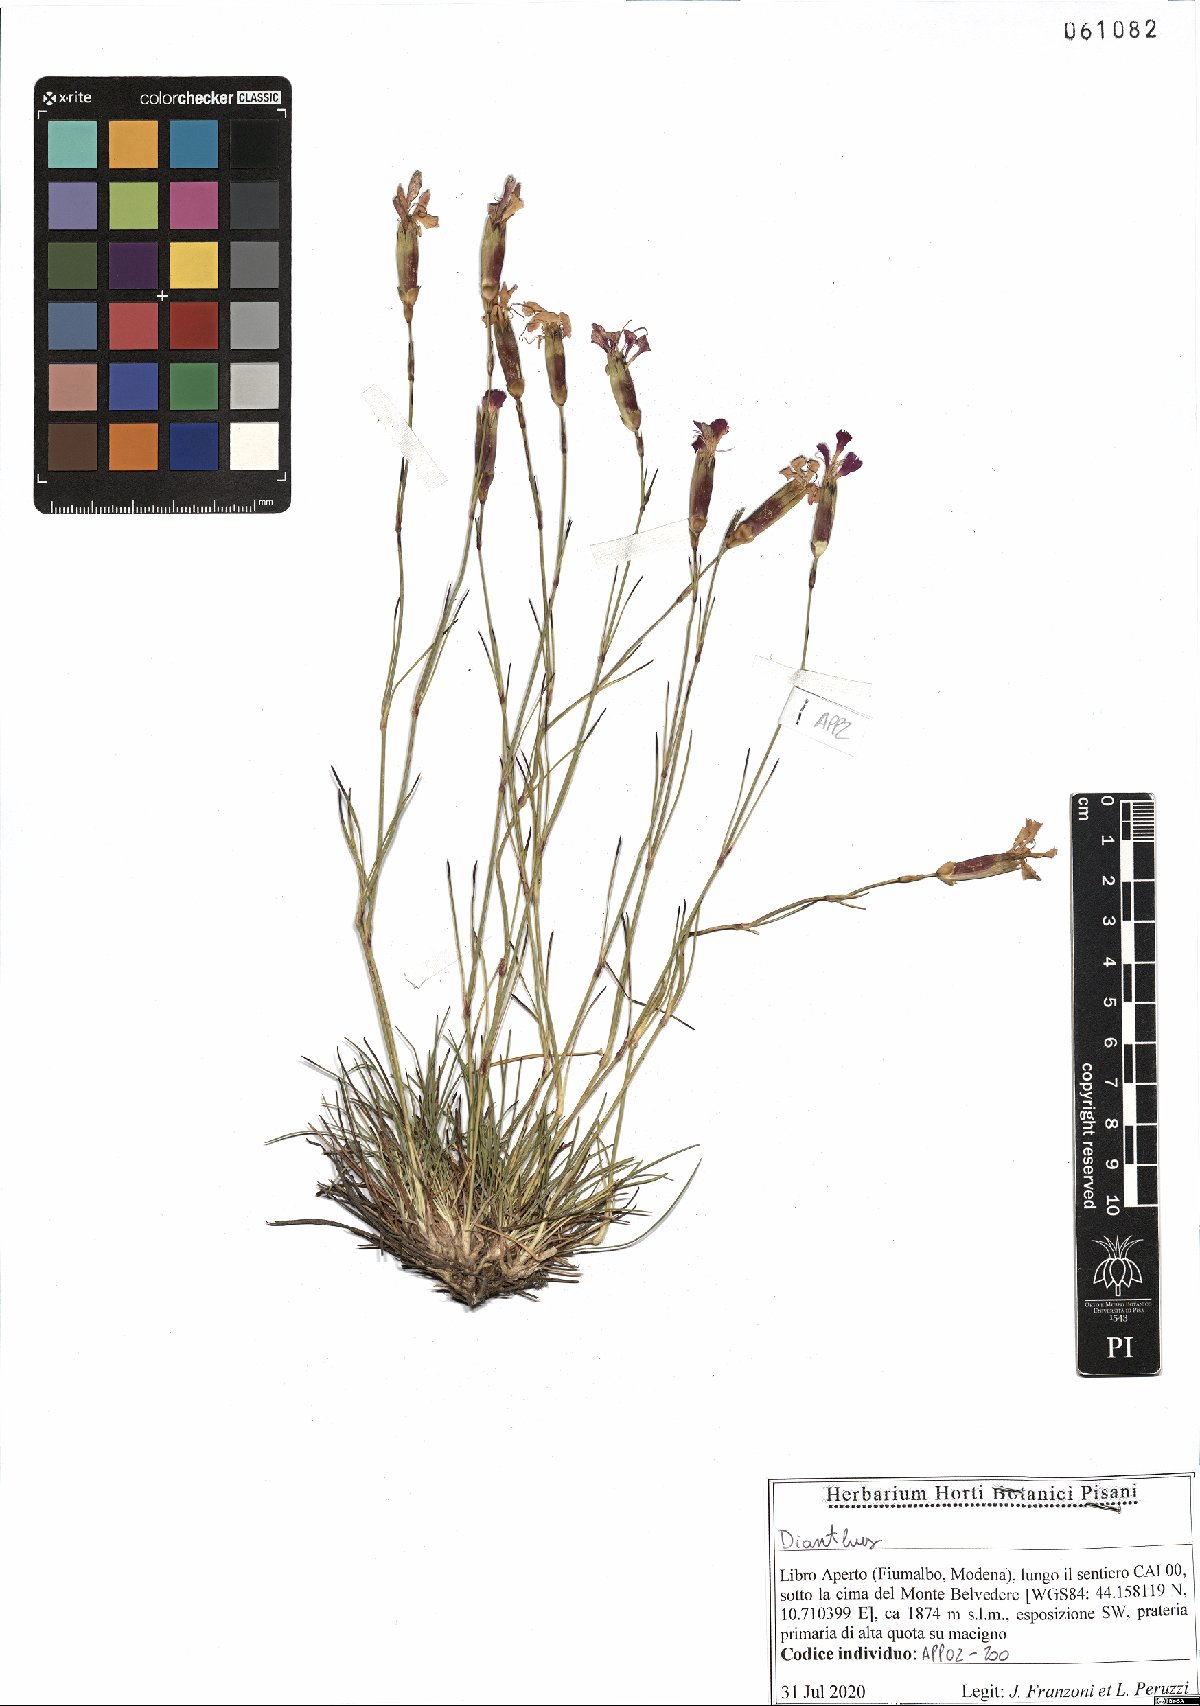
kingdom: Plantae
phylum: Tracheophyta
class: Magnoliopsida
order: Caryophyllales
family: Caryophyllaceae
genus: Dianthus
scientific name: Dianthus virgineus
